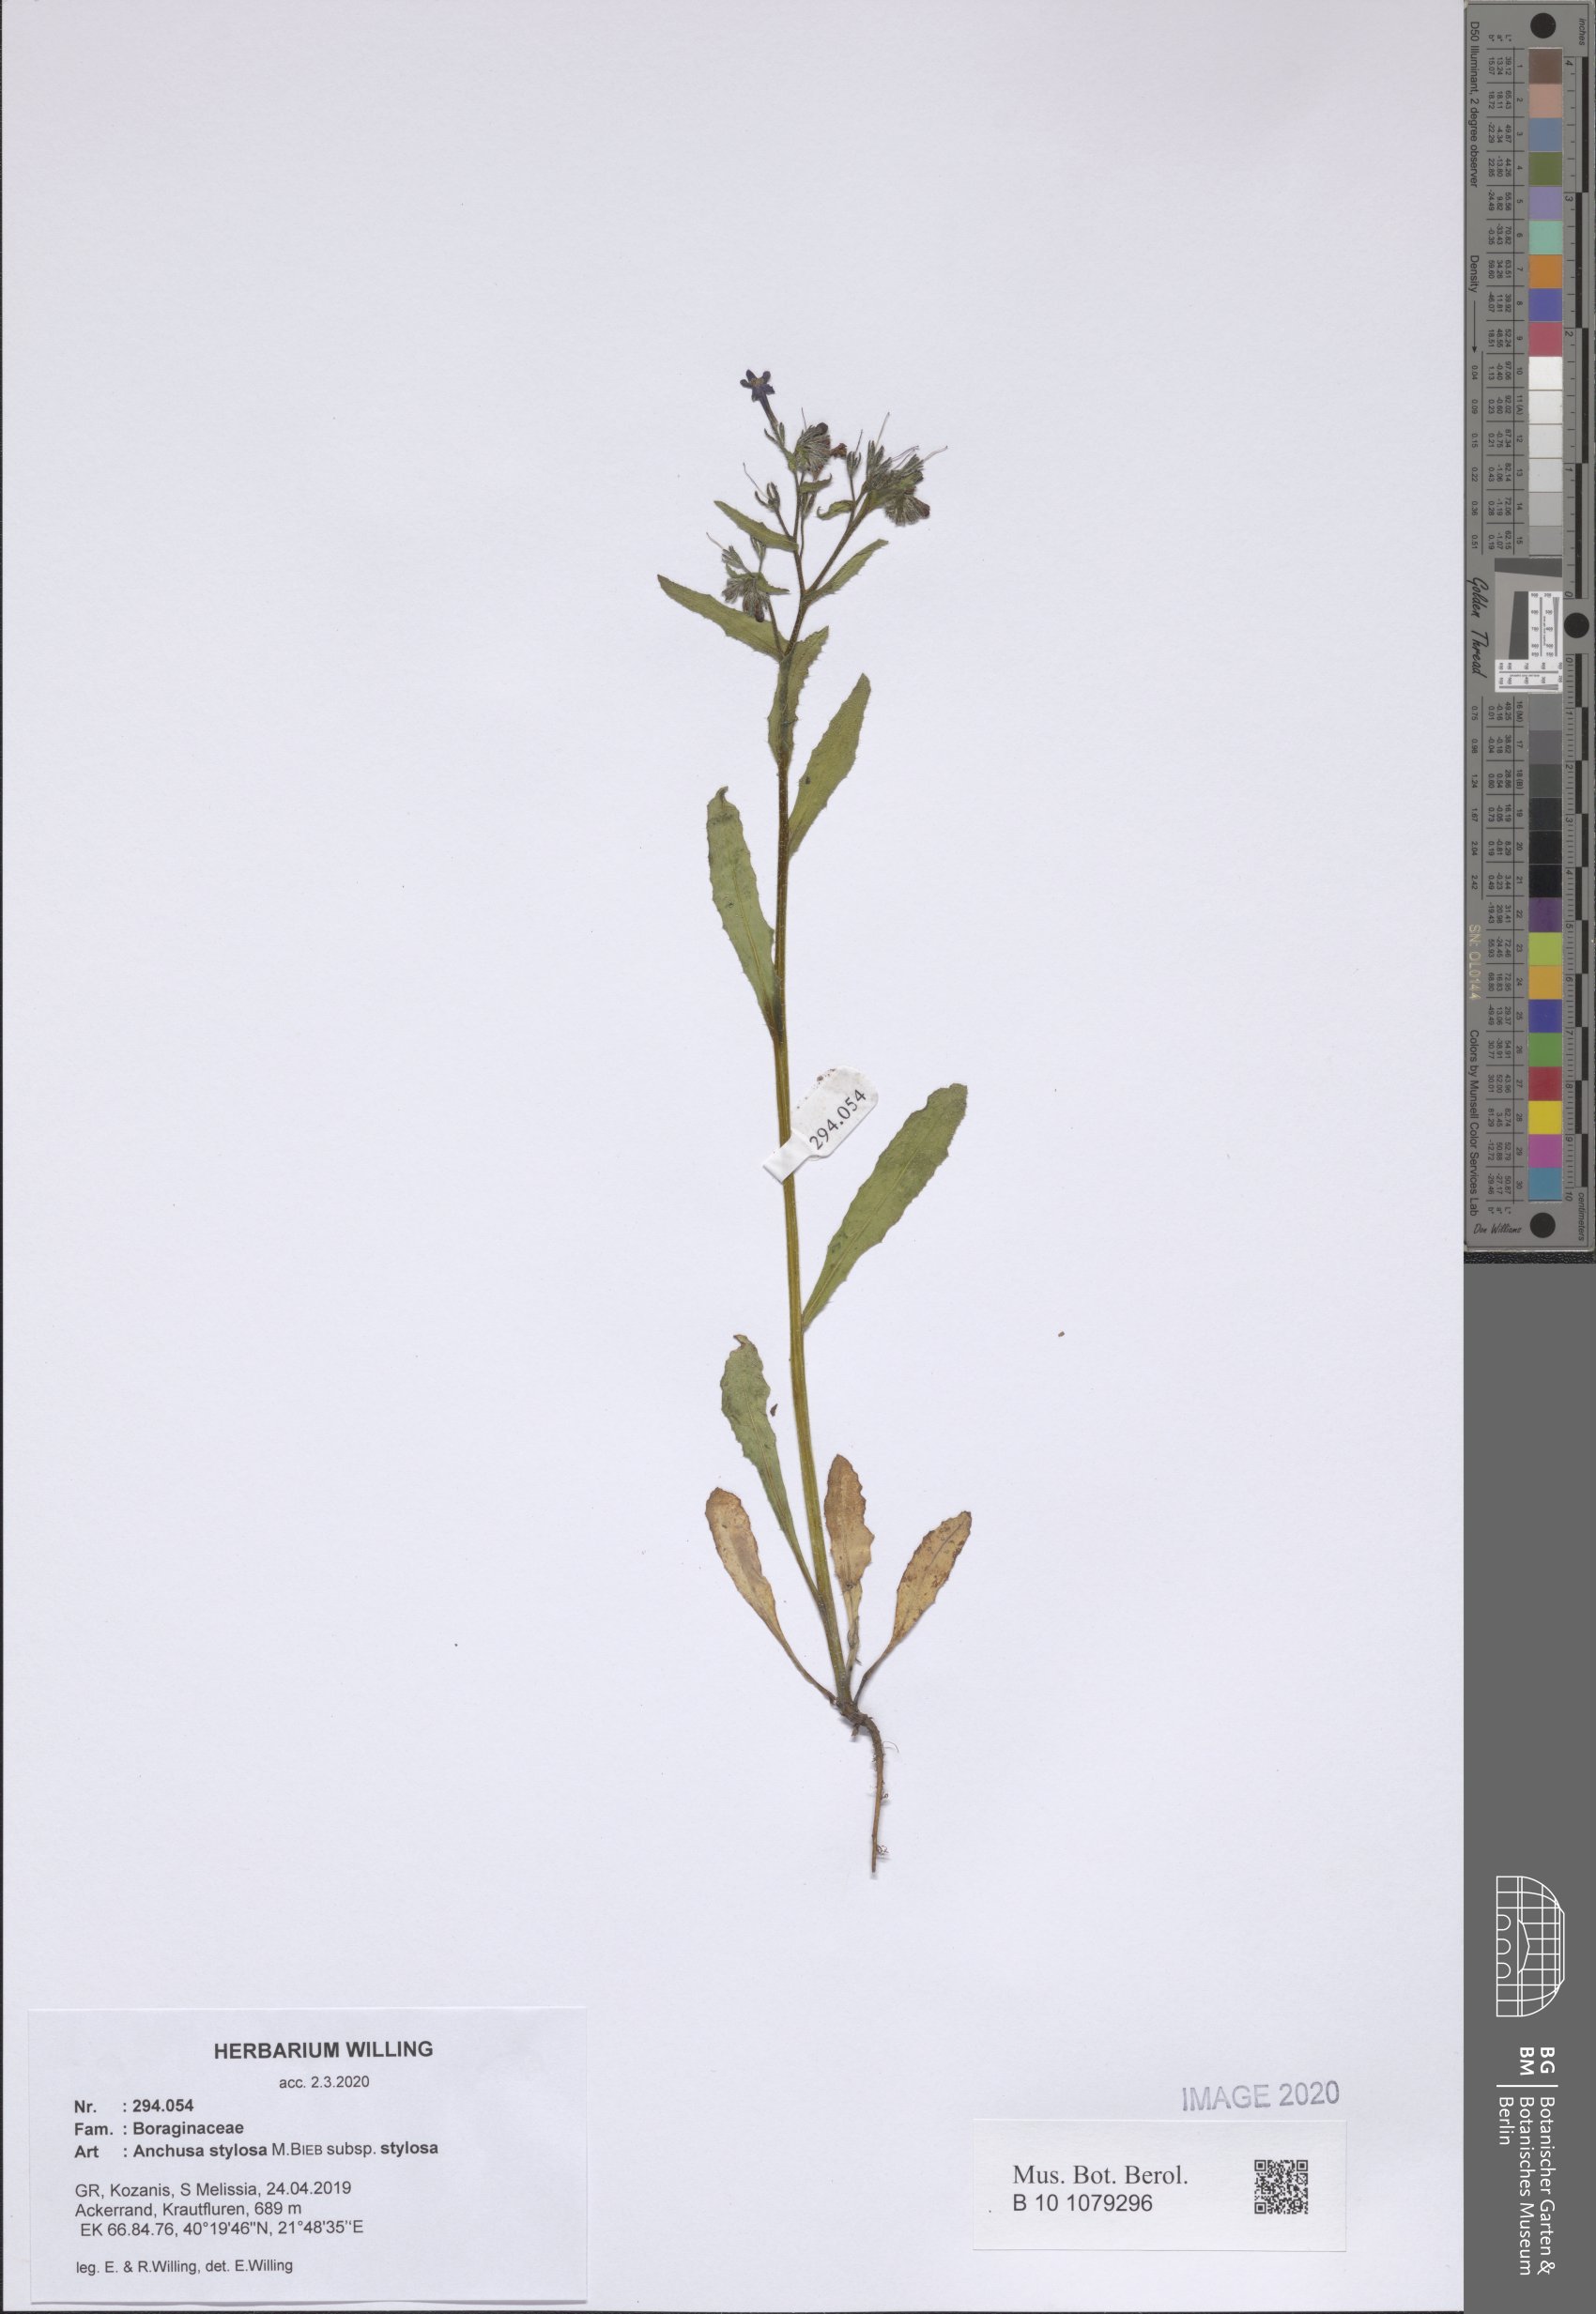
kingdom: Plantae
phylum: Tracheophyta
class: Magnoliopsida
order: Boraginales
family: Boraginaceae
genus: Anchusa
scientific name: Anchusa stylosa
